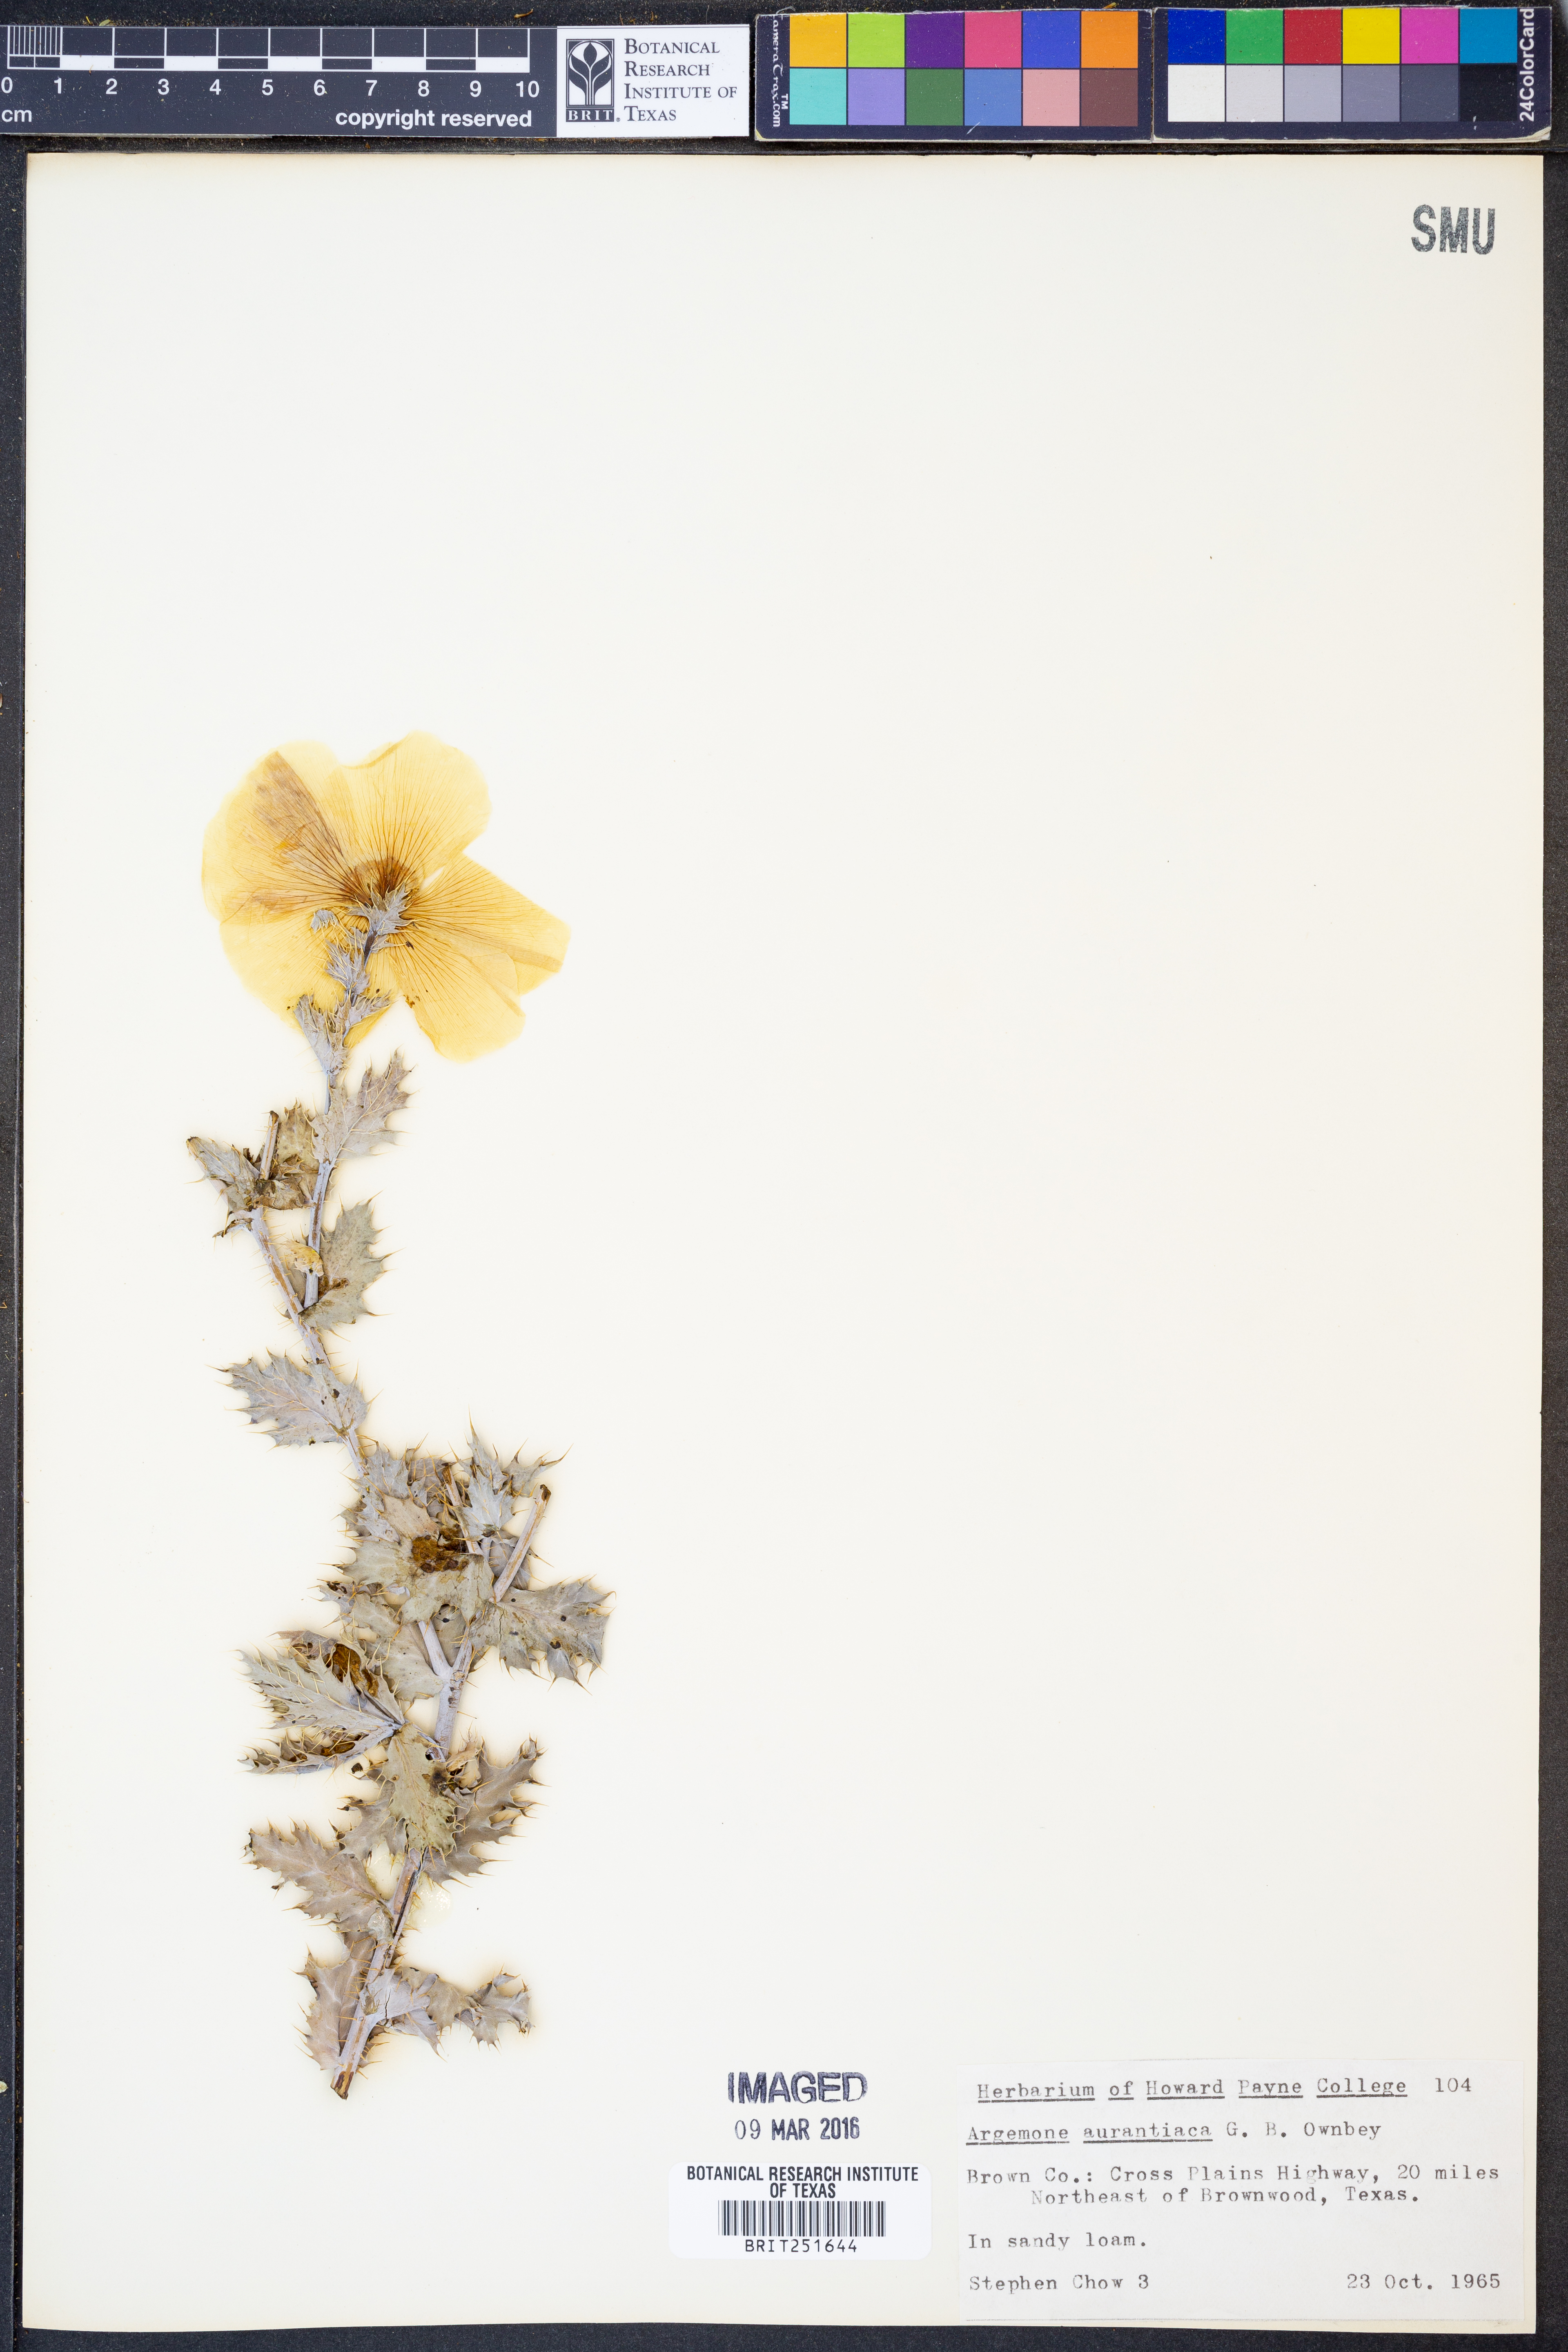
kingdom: Plantae
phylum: Tracheophyta
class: Magnoliopsida
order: Ranunculales
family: Papaveraceae
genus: Argemone
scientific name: Argemone aurantiaca
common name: Texas prickly-poppy
